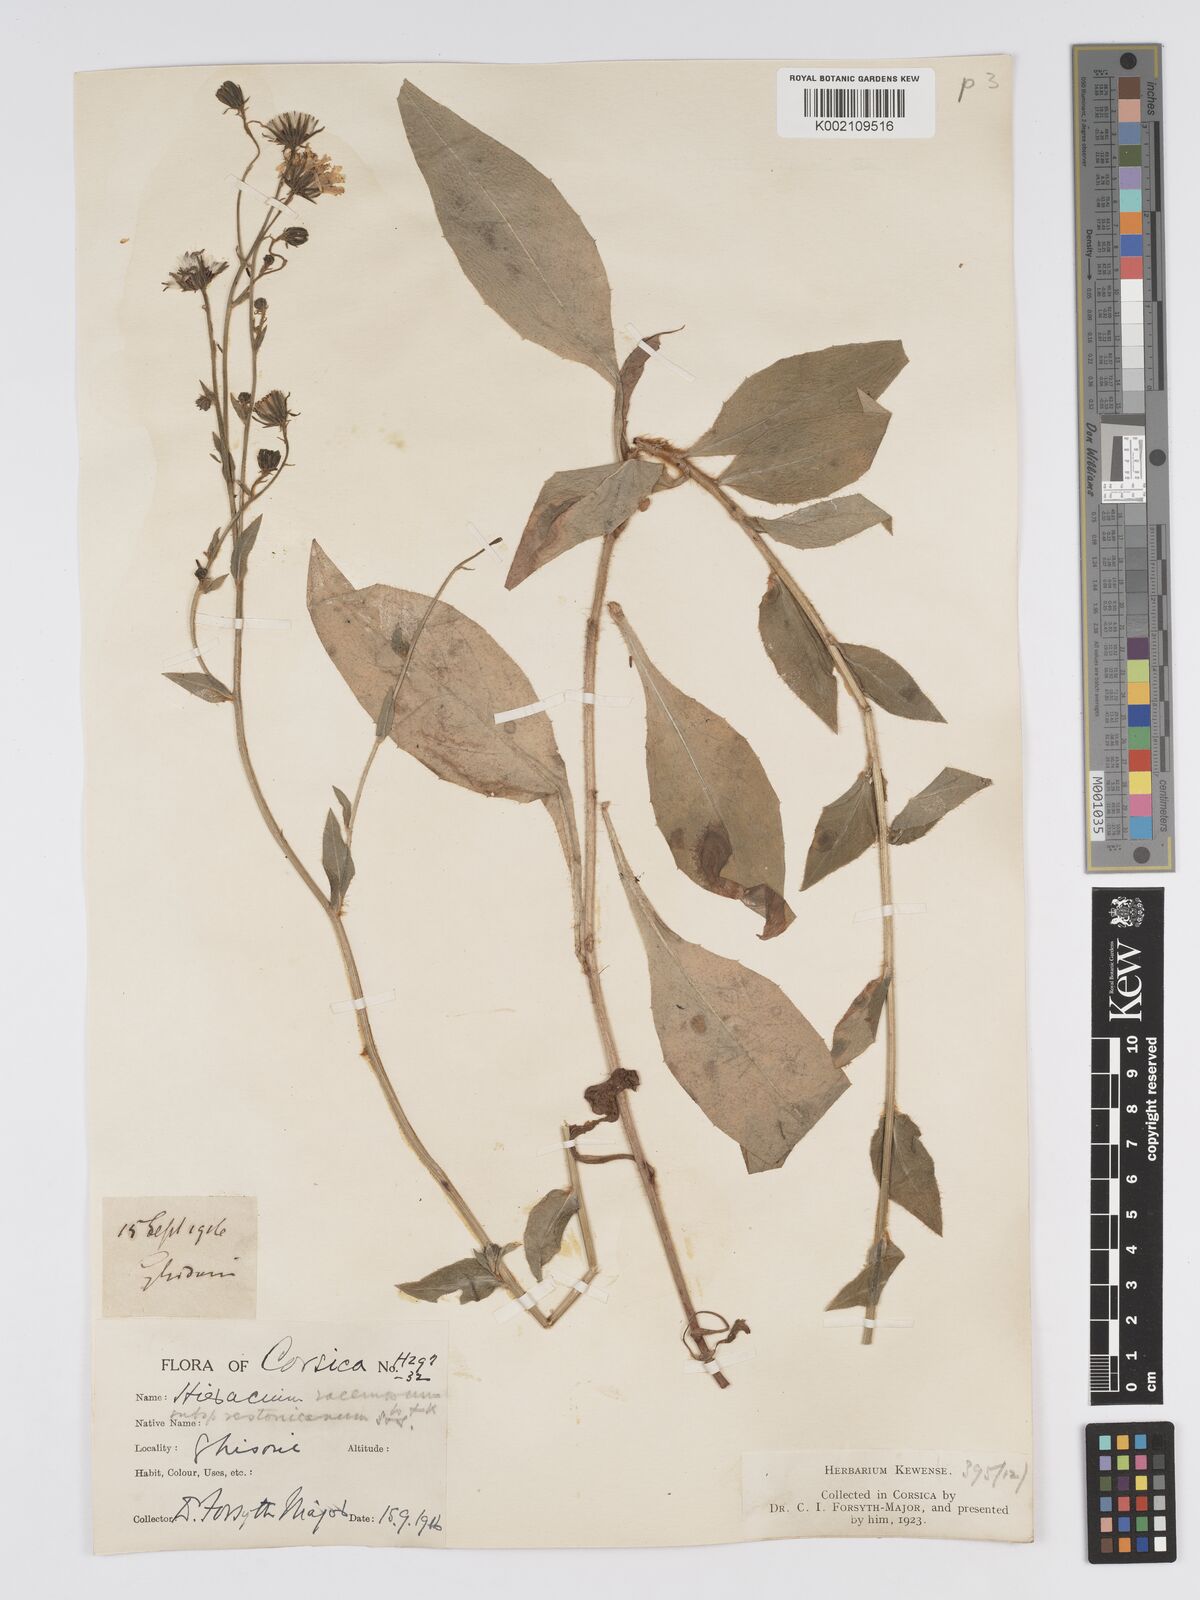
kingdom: Plantae
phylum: Tracheophyta
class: Magnoliopsida
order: Asterales
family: Asteraceae
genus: Hieracium
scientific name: Hieracium
